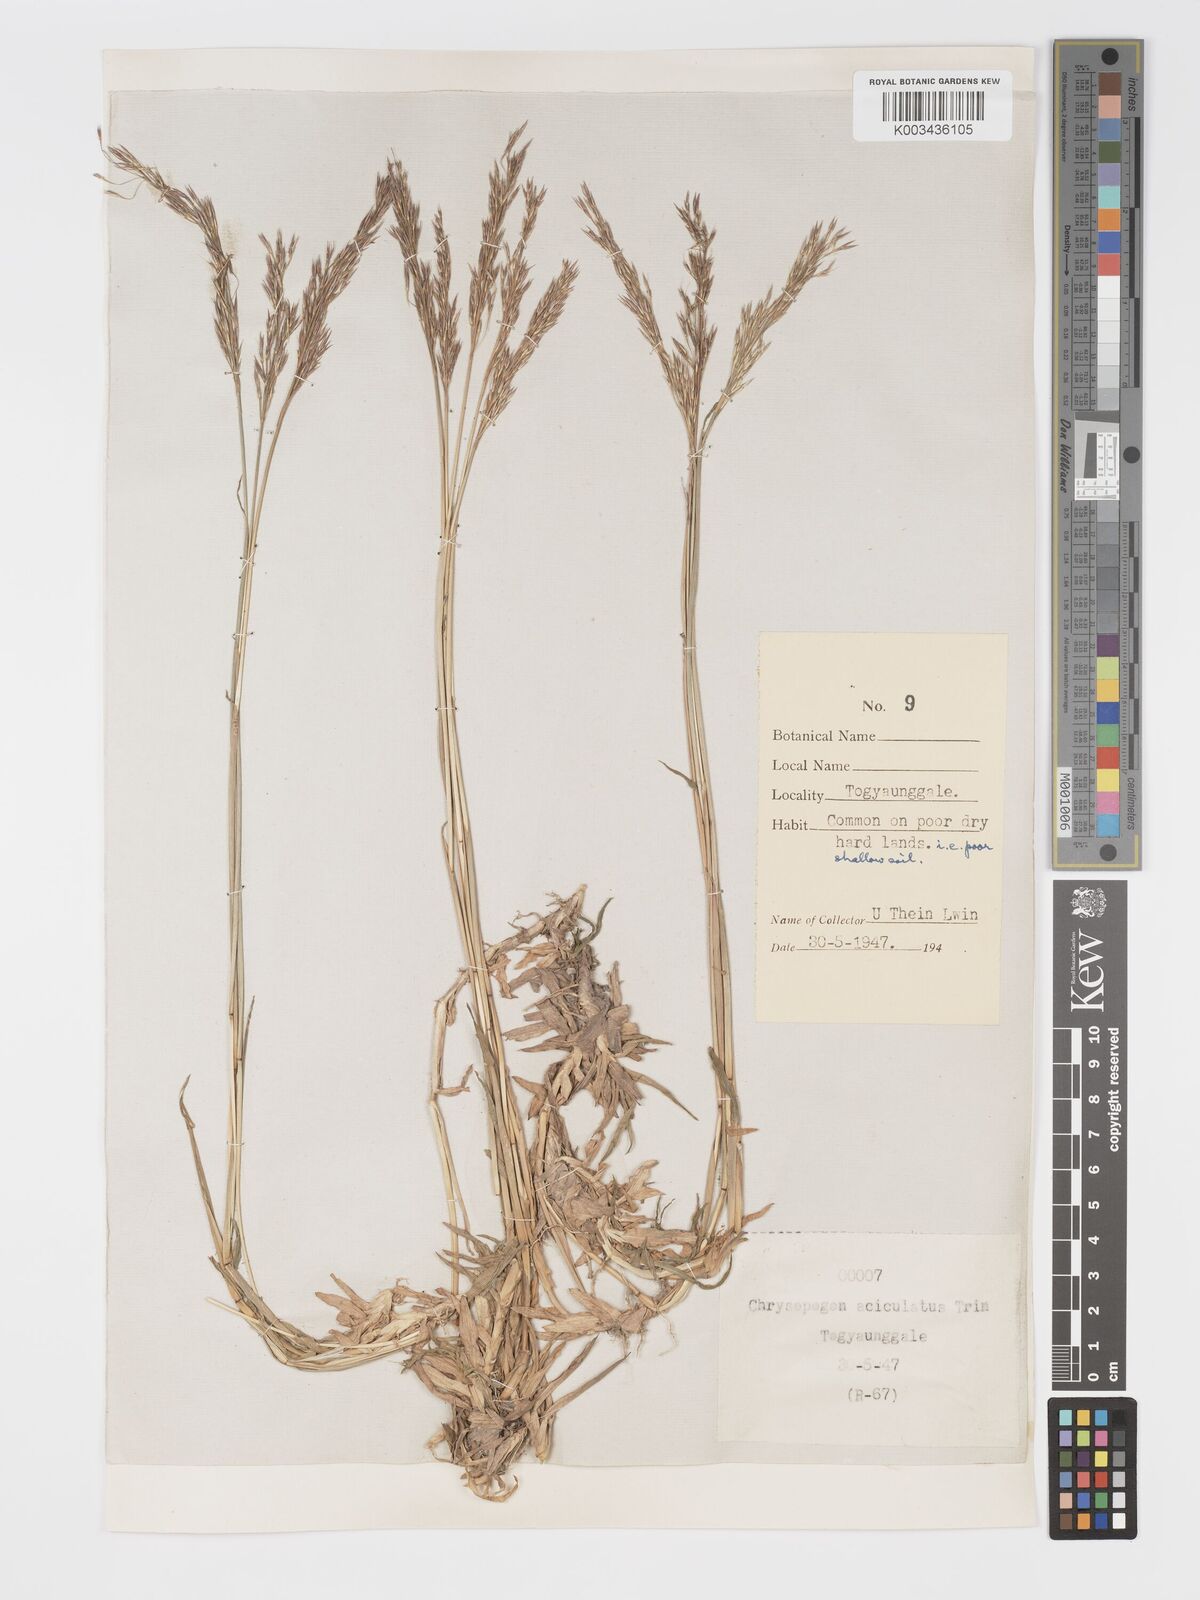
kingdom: Plantae
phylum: Tracheophyta
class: Liliopsida
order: Poales
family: Poaceae
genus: Chrysopogon
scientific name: Chrysopogon aciculatus
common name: Pilipiliula
